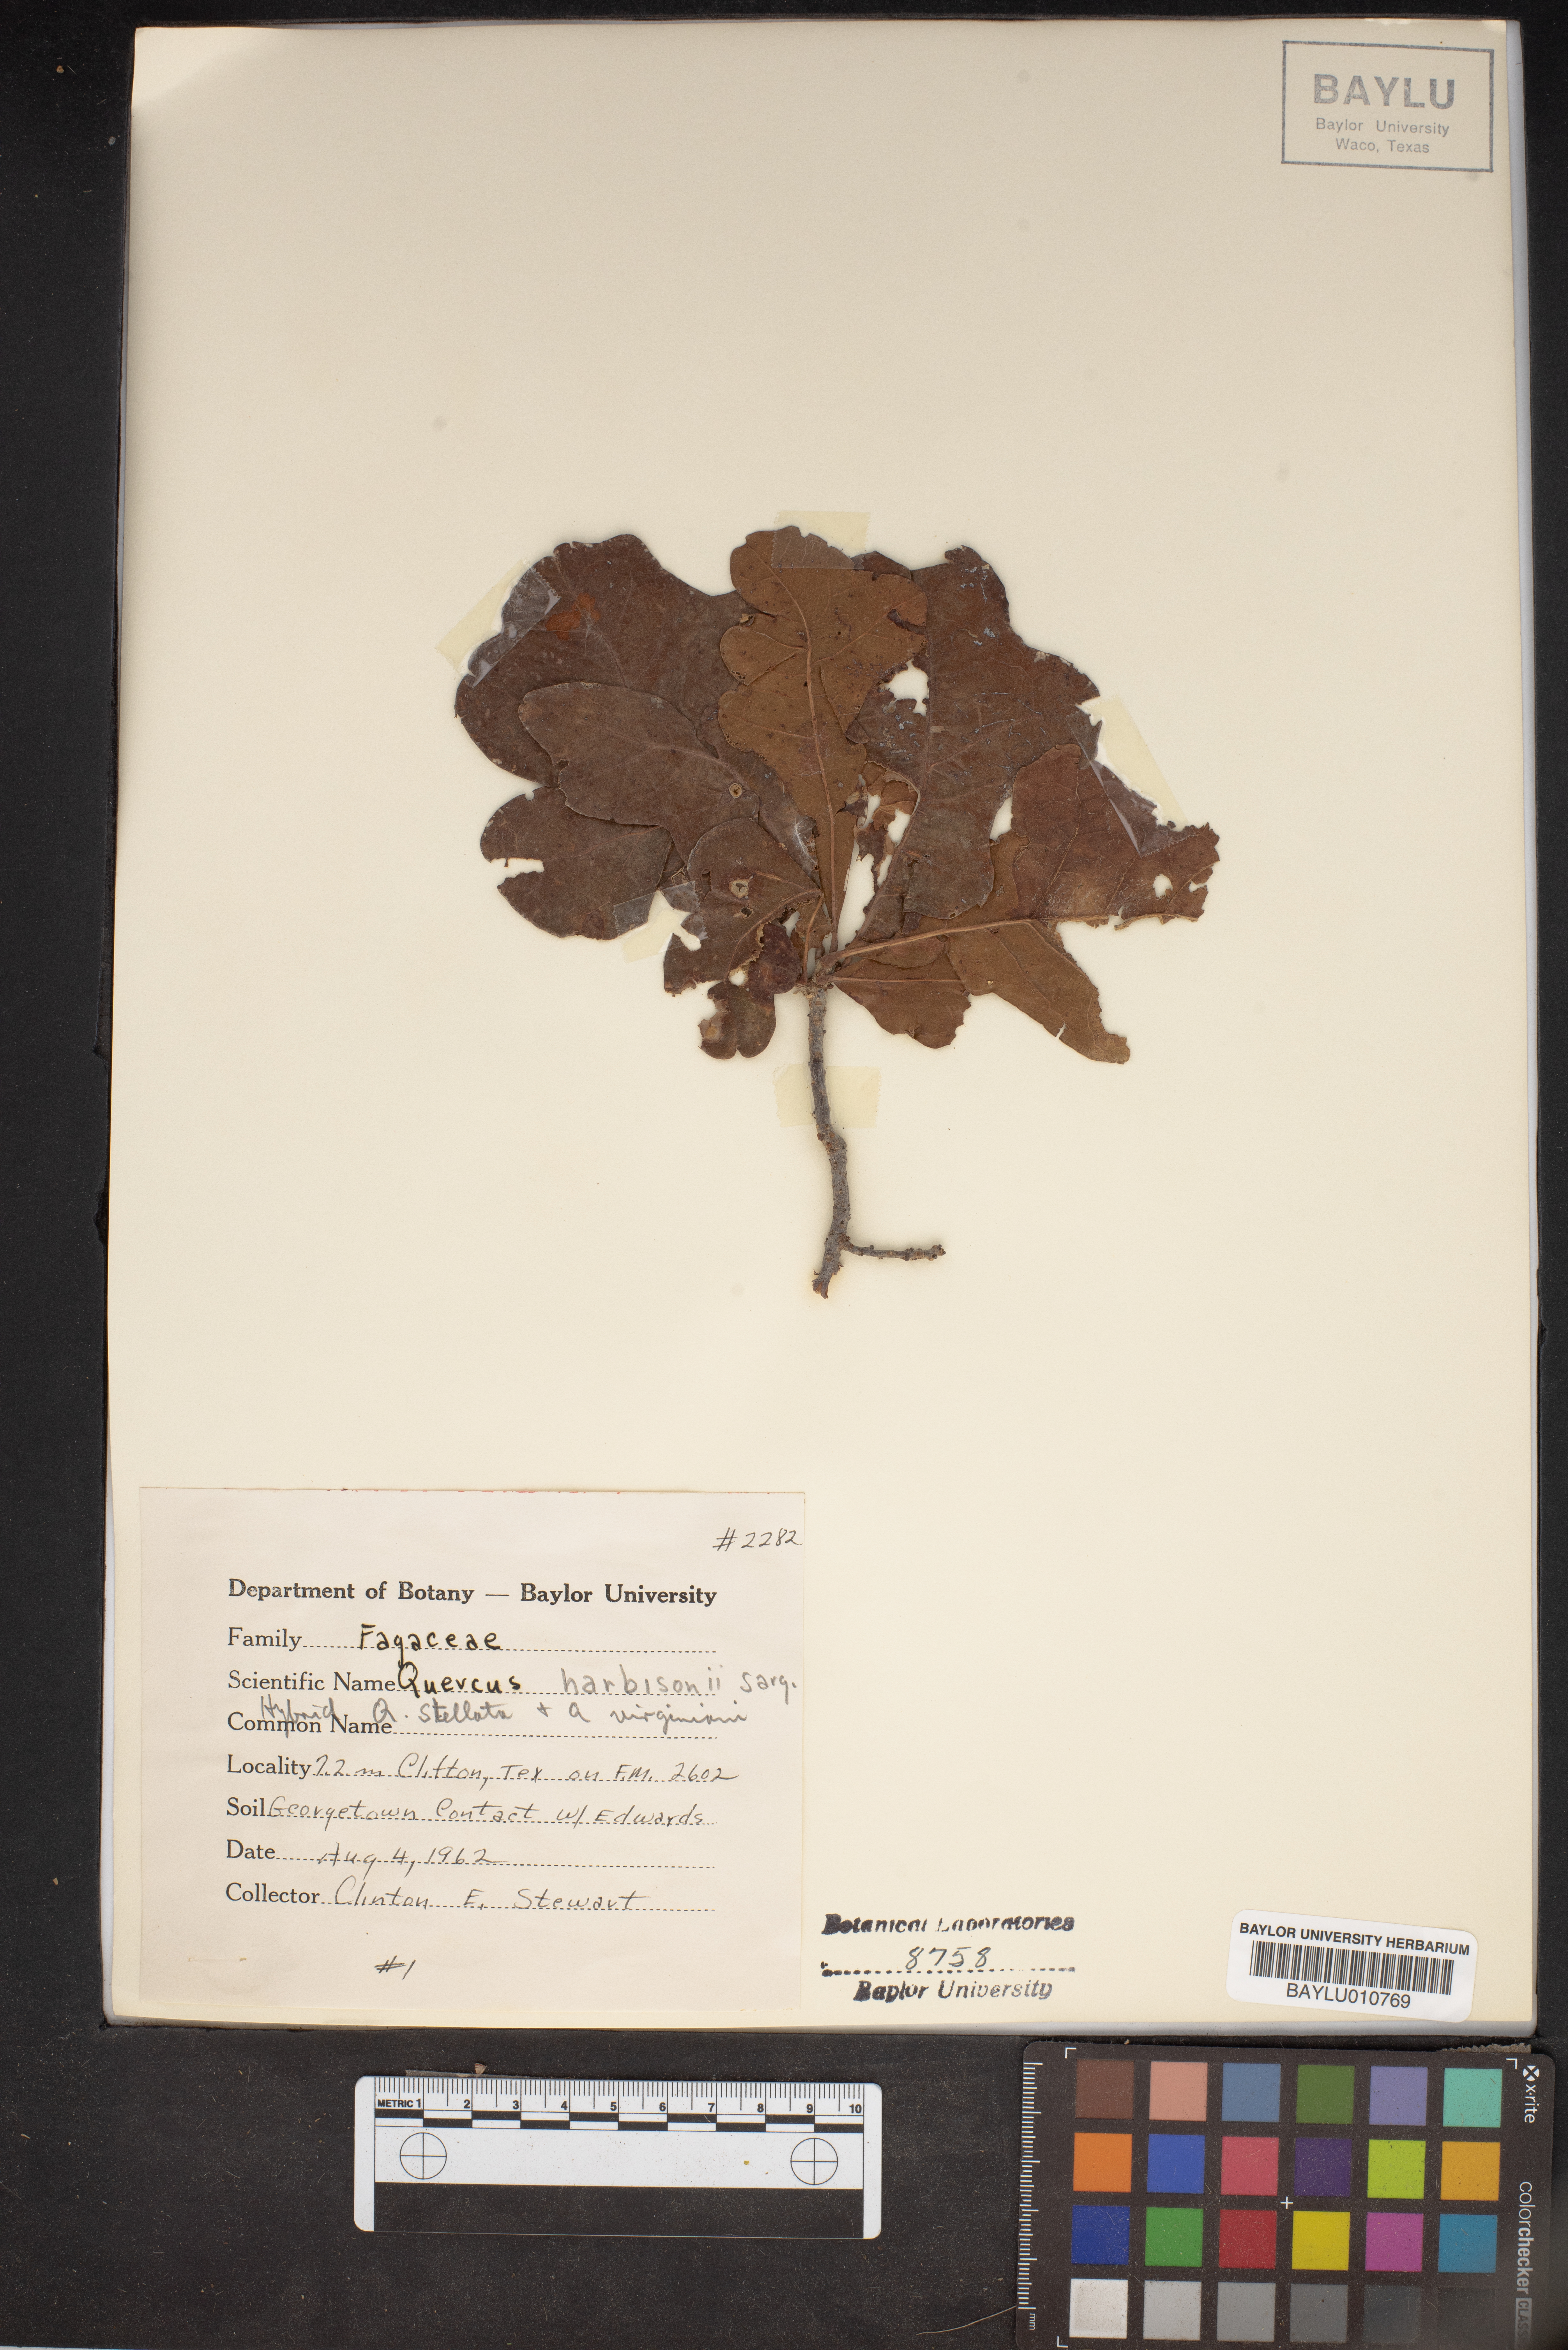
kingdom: Plantae
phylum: Tracheophyta
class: Magnoliopsida
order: Fagales
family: Fagaceae
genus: Quercus
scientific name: Quercus harbisonii
